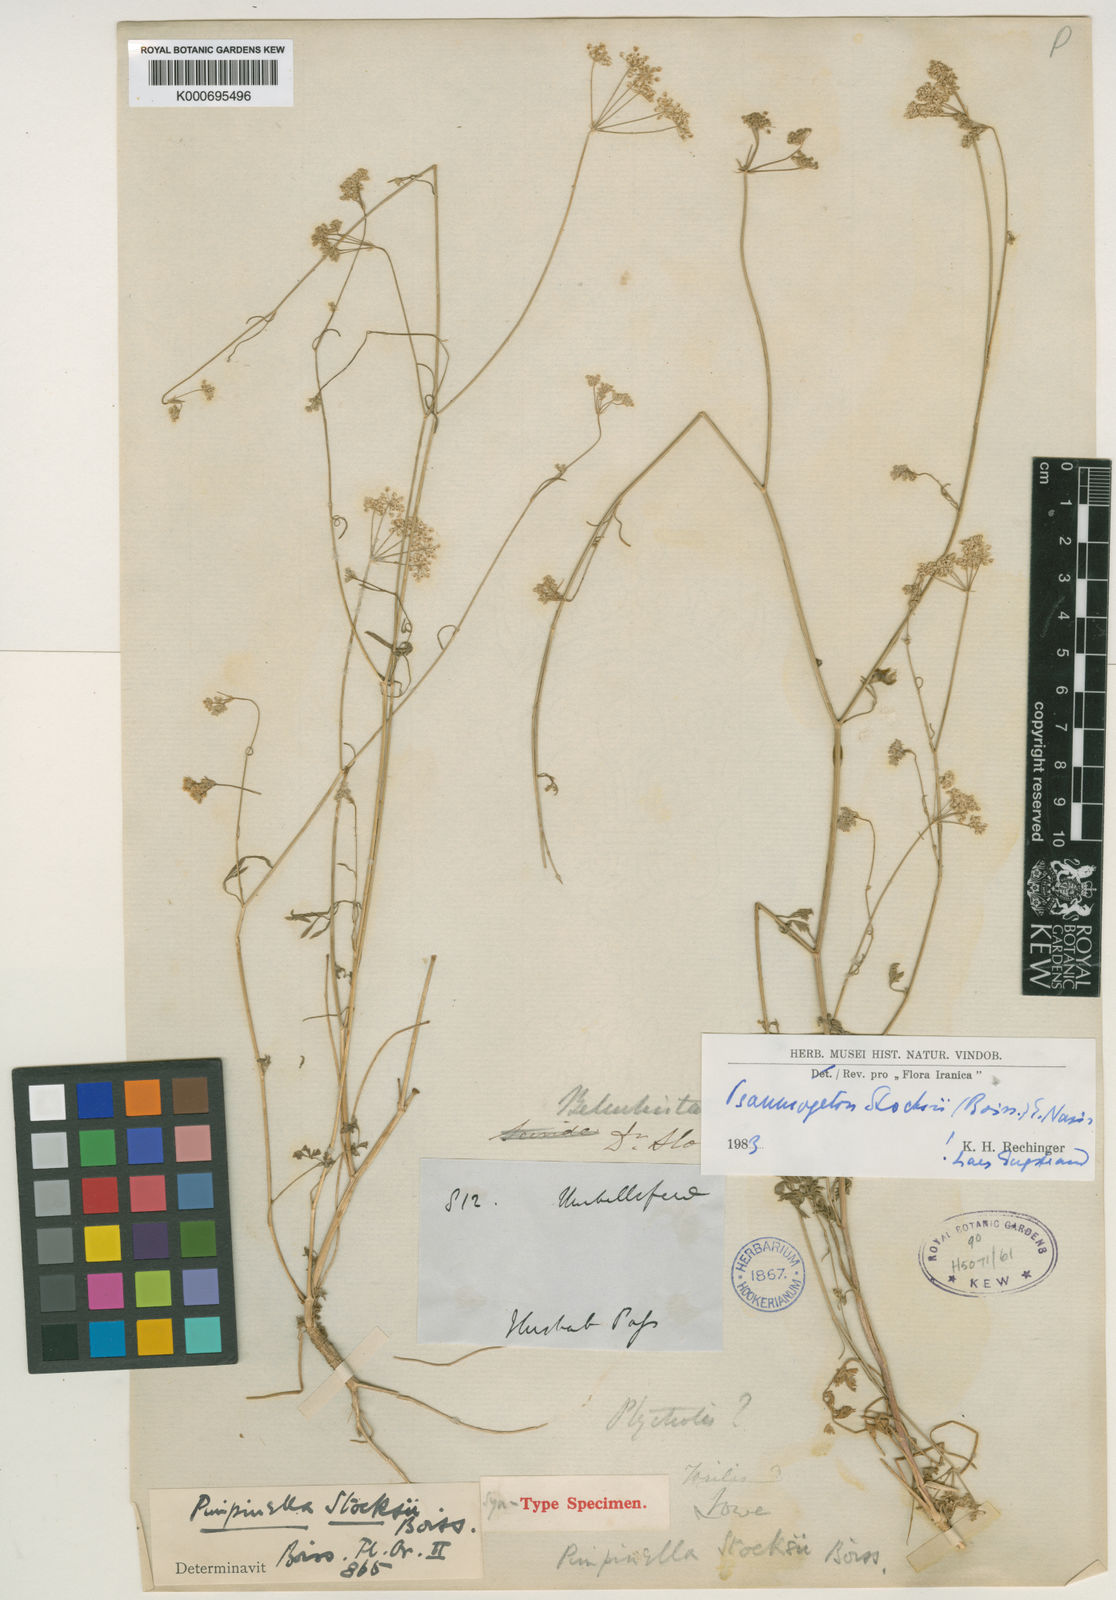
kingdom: Plantae
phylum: Tracheophyta
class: Magnoliopsida
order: Apiales
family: Apiaceae
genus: Psammogeton
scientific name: Psammogeton stocksii
